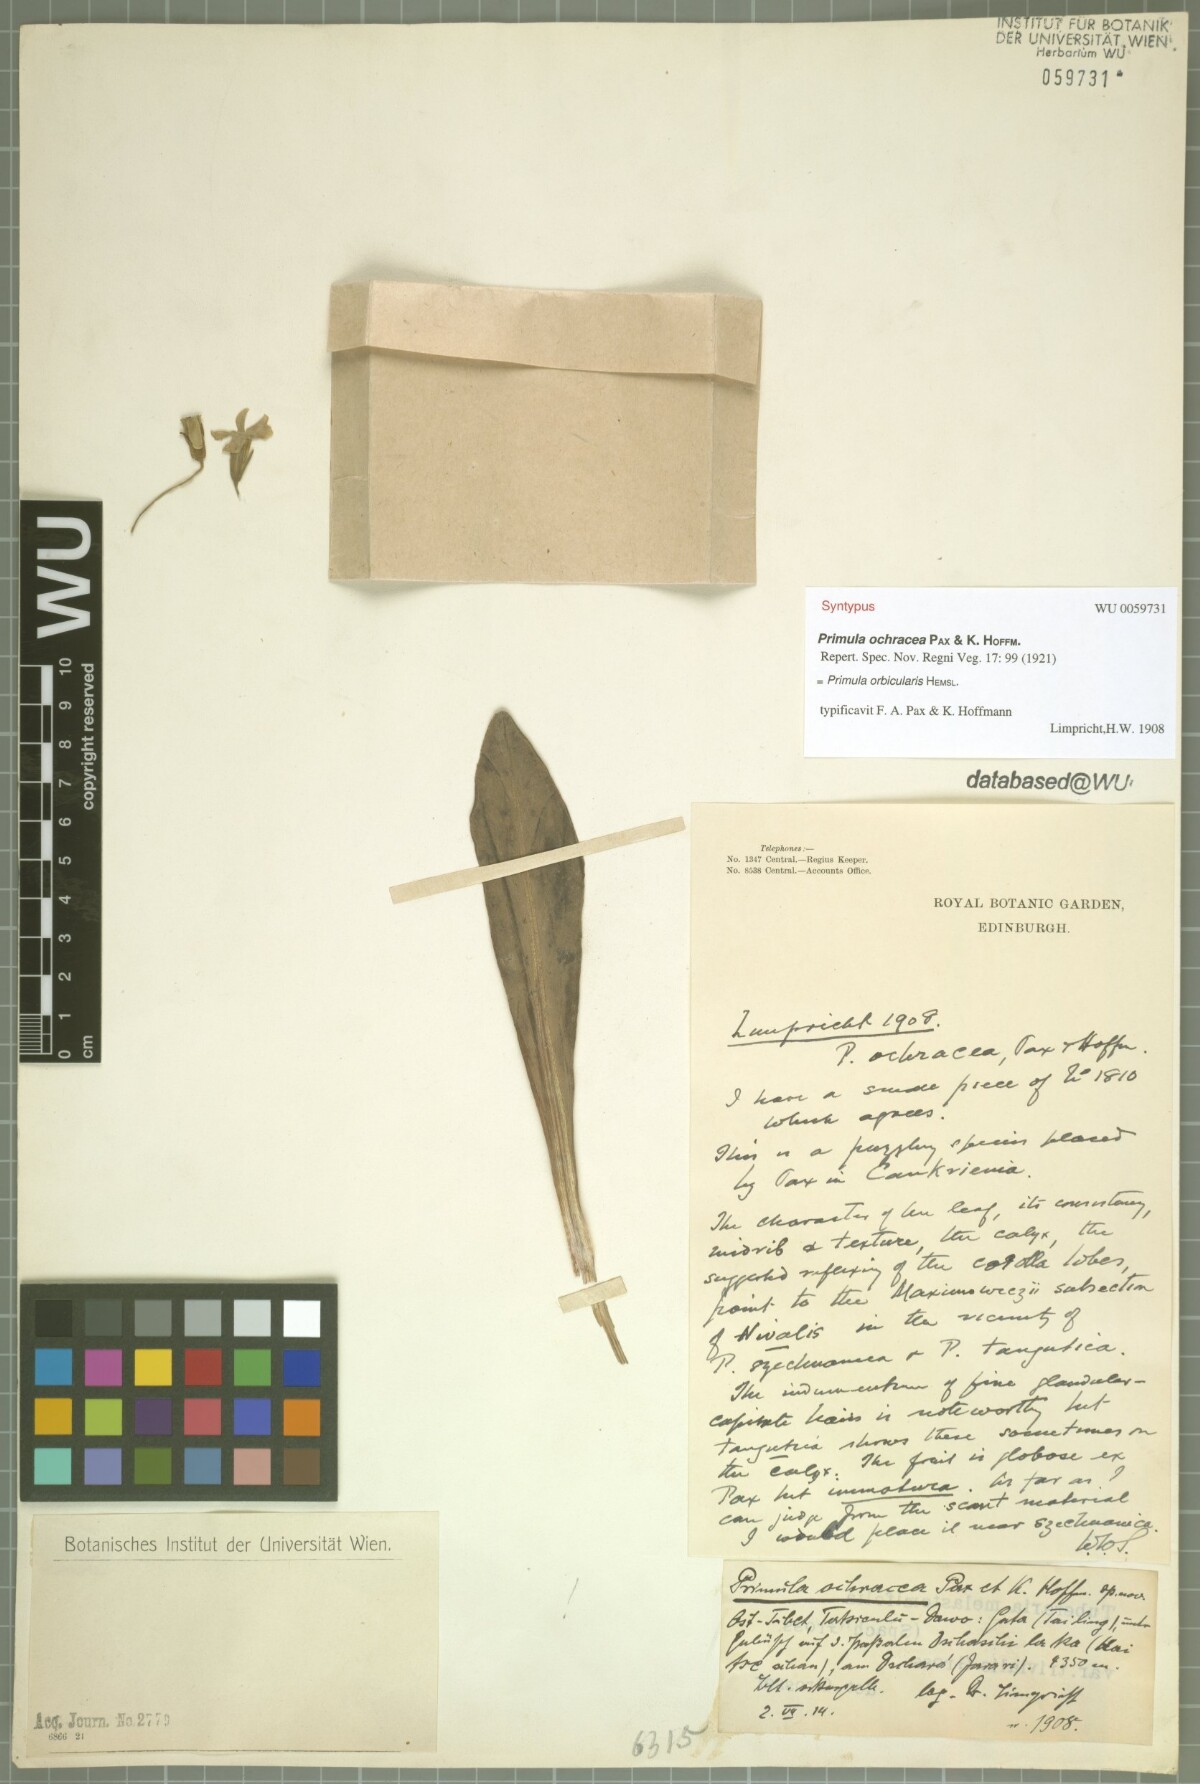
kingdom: Plantae
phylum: Tracheophyta
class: Magnoliopsida
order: Ericales
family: Primulaceae
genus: Primula
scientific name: Primula orbicularis
